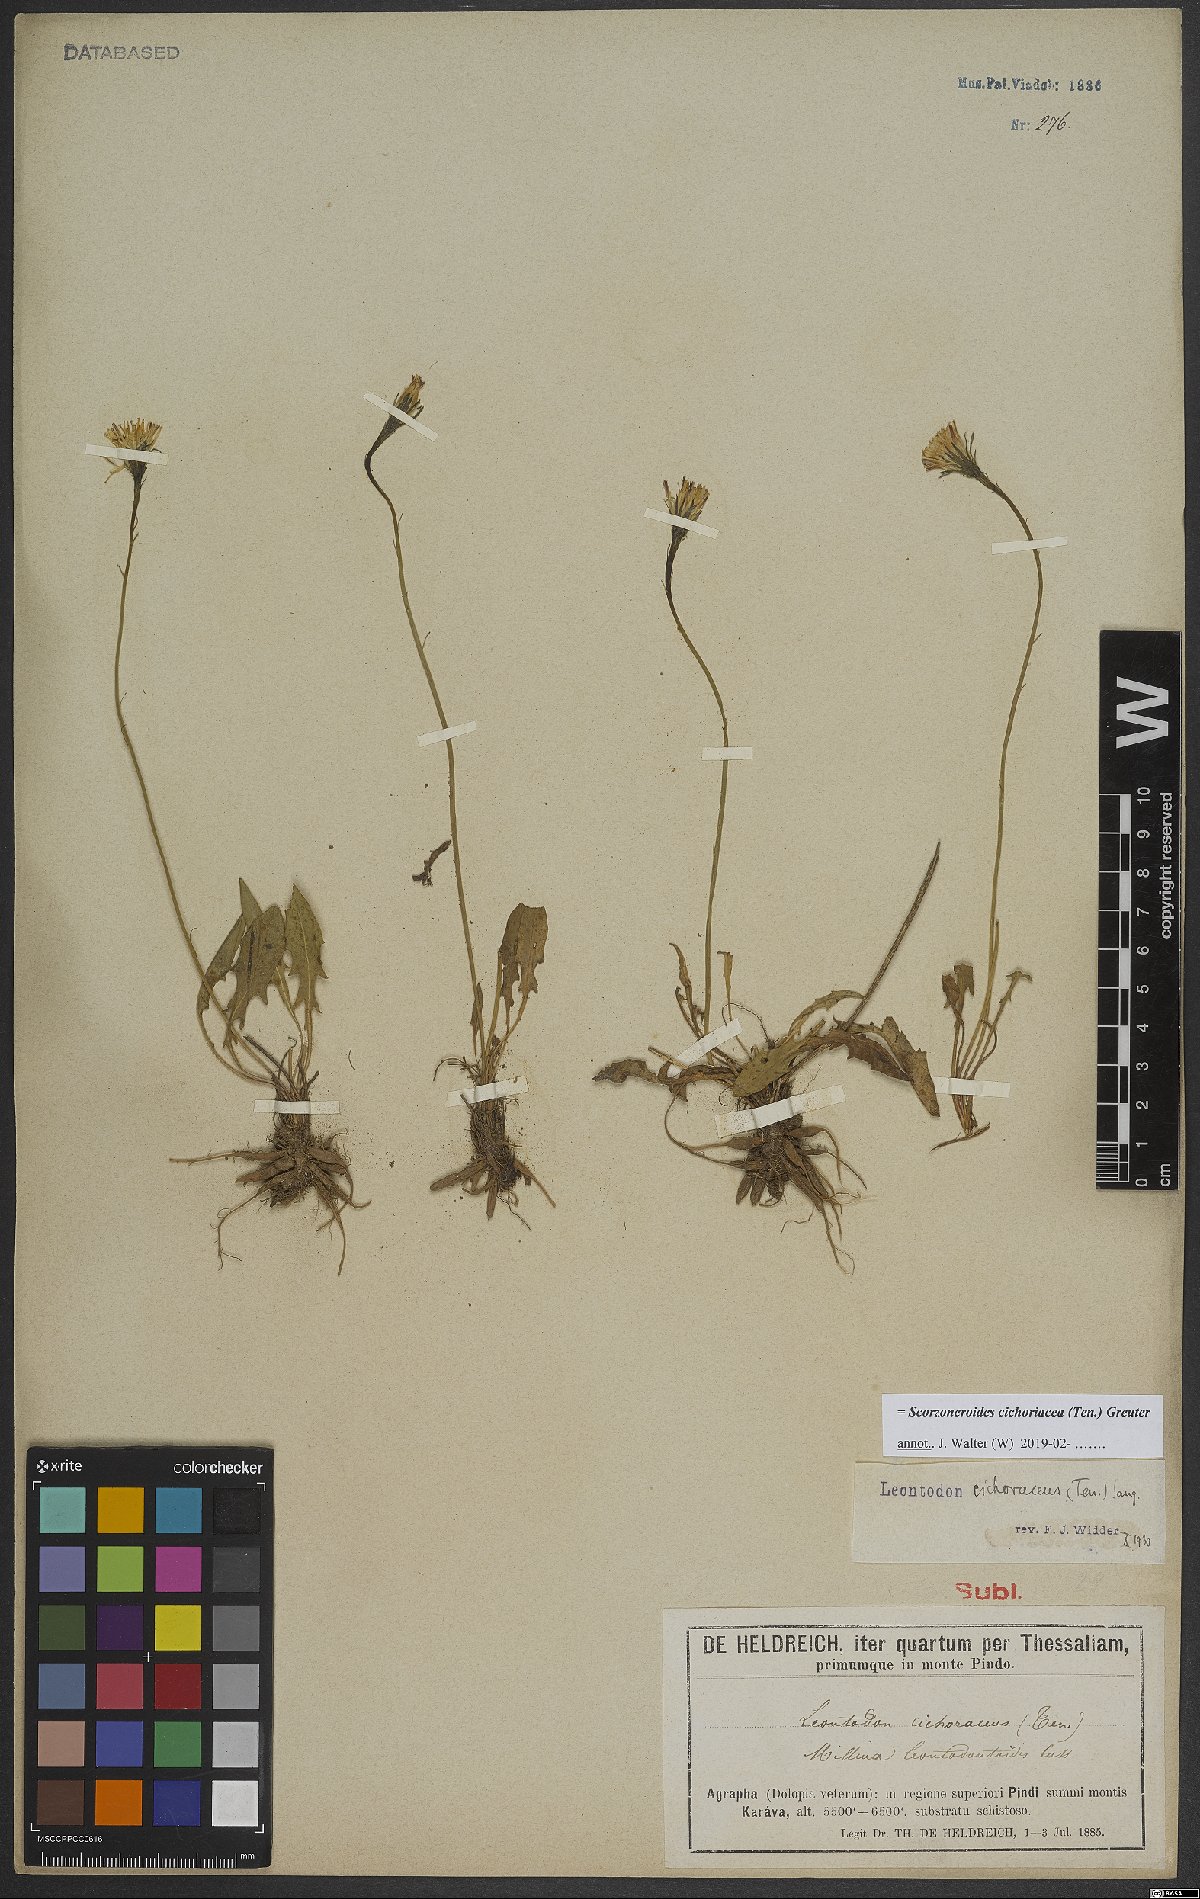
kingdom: Plantae
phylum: Tracheophyta
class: Magnoliopsida
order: Asterales
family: Asteraceae
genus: Scorzoneroides
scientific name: Scorzoneroides cichoriacea
